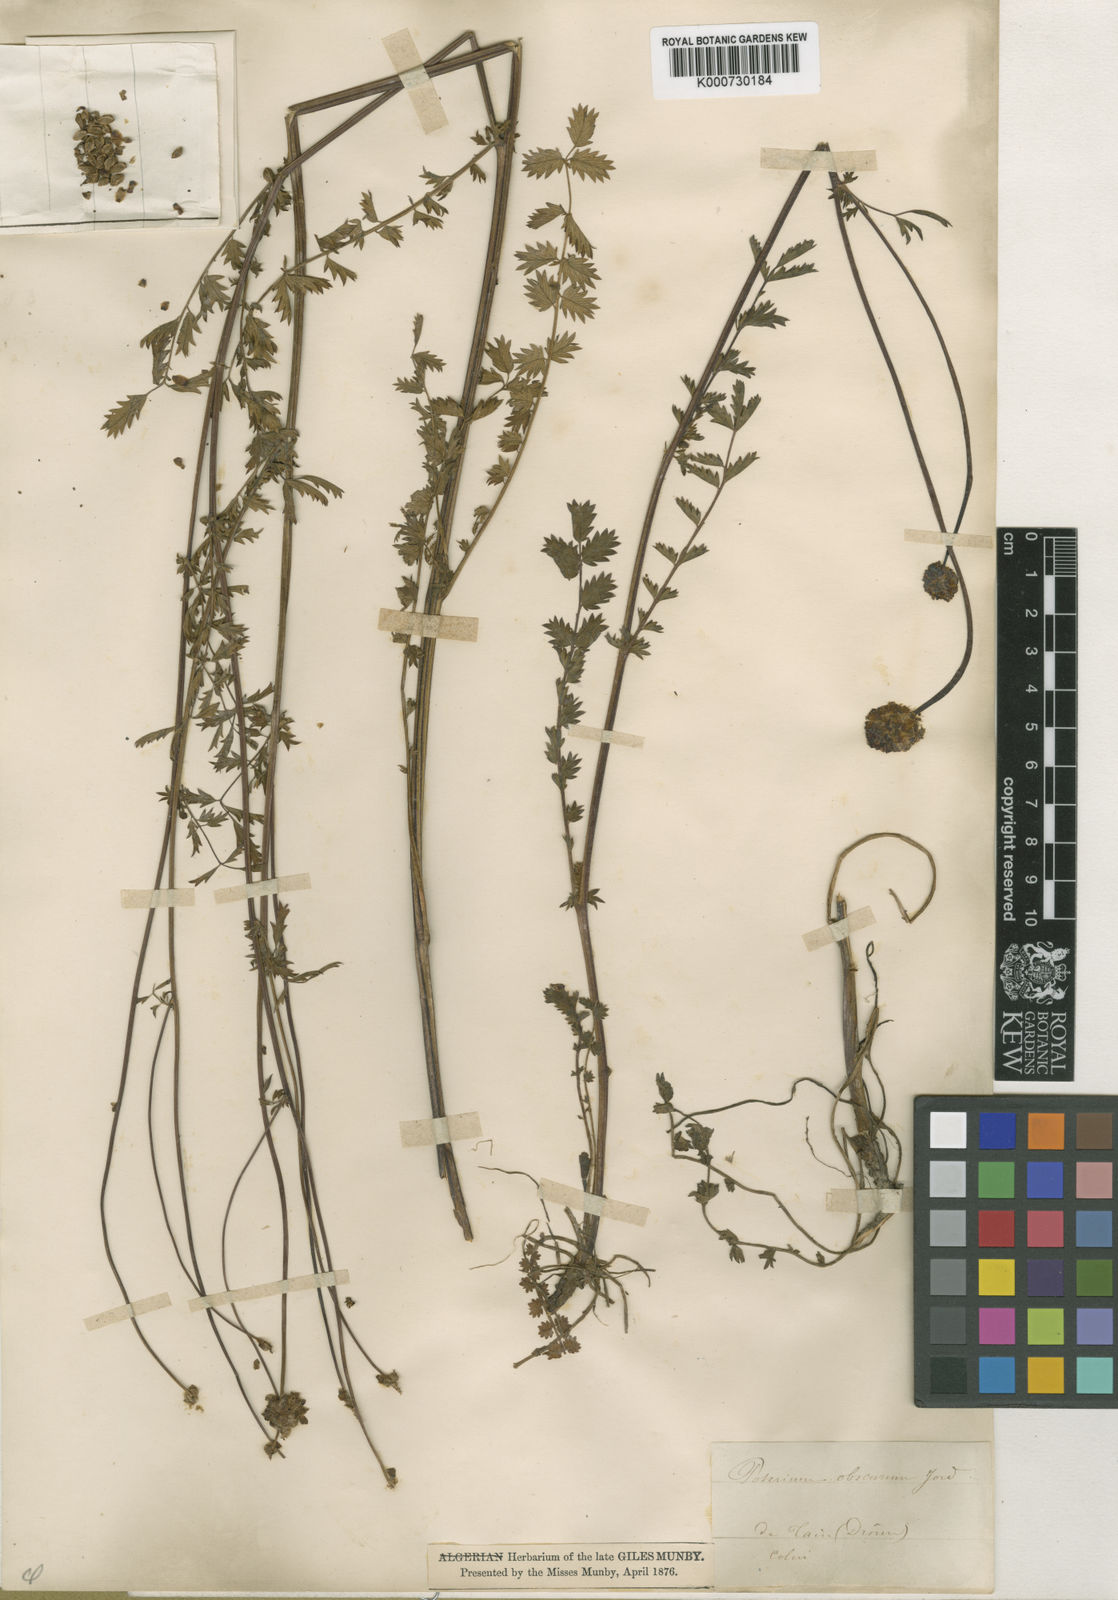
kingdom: Plantae
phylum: Tracheophyta
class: Magnoliopsida
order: Rosales
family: Rosaceae
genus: Sanguisorba
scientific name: Sanguisorba
